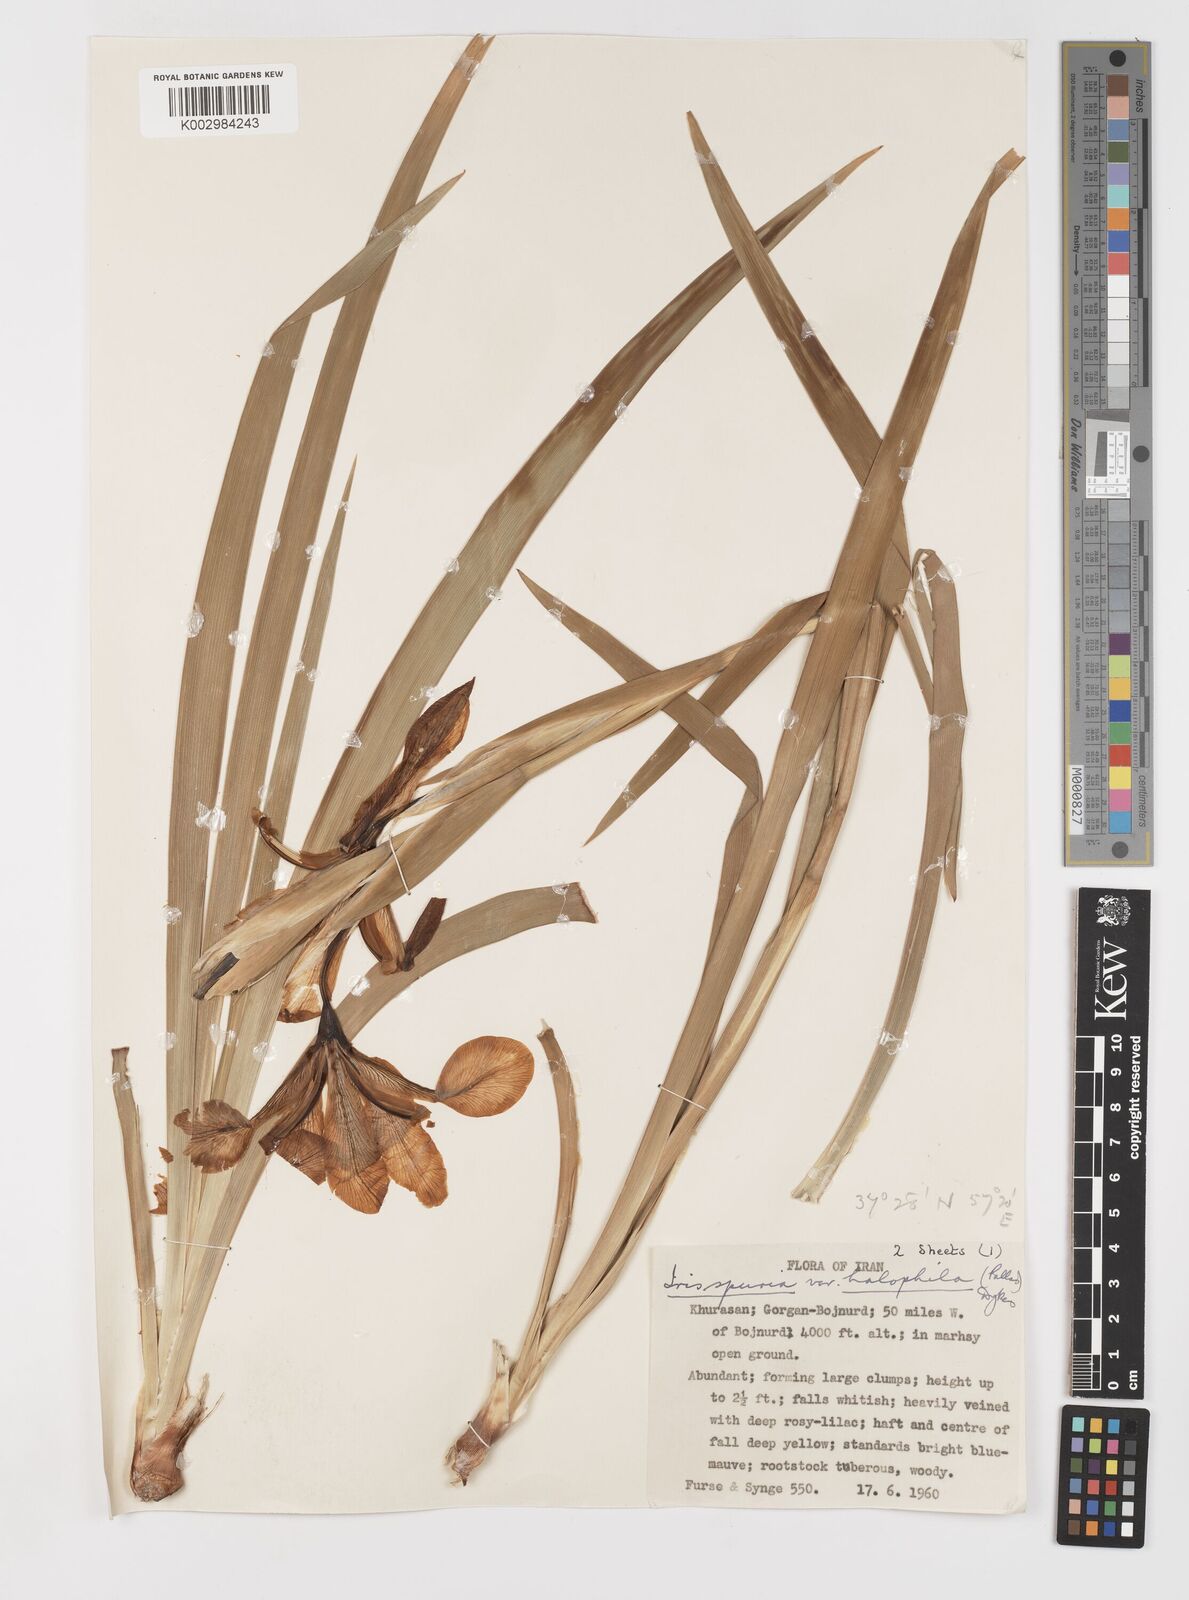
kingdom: Plantae
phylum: Tracheophyta
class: Liliopsida
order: Asparagales
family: Iridaceae
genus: Iris
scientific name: Iris spuria
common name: Blue iris
